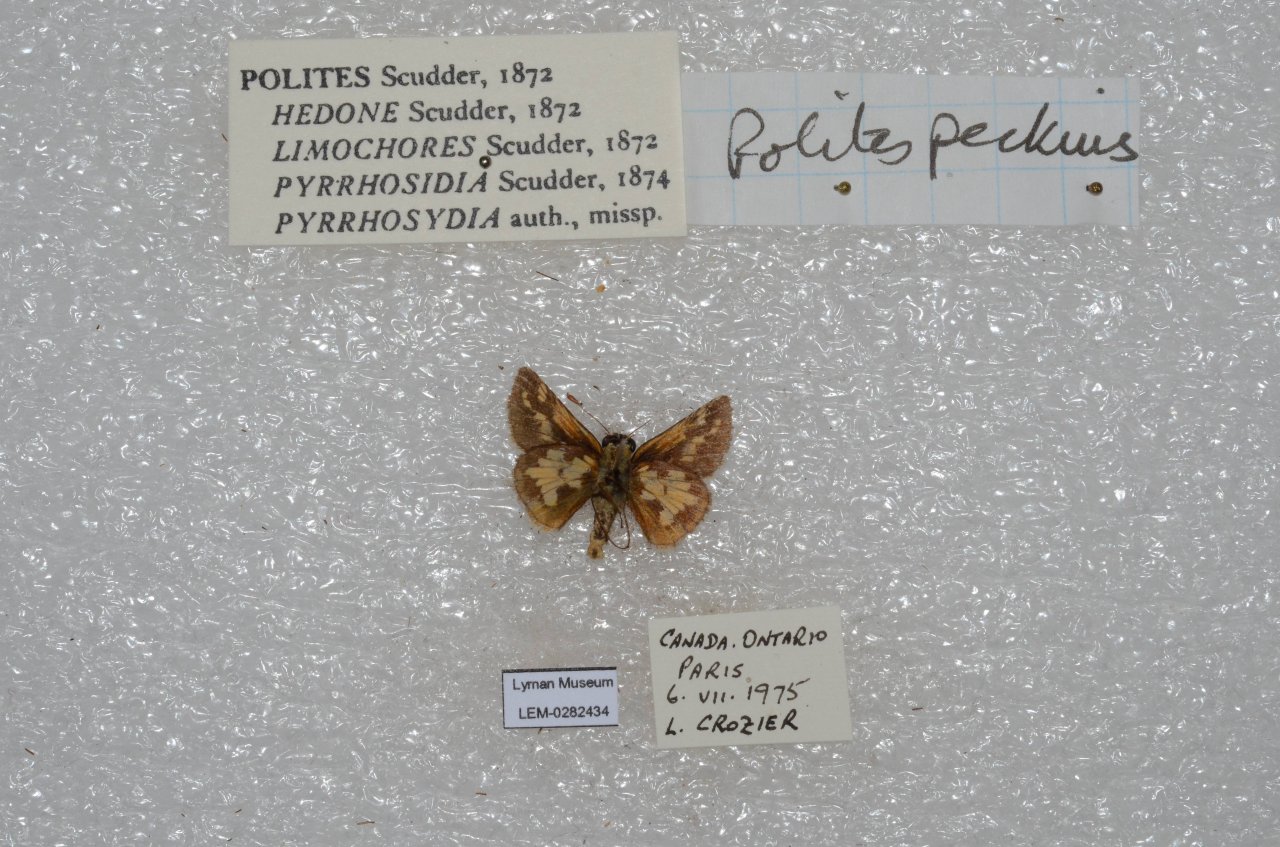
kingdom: Animalia
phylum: Arthropoda
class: Insecta
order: Lepidoptera
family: Hesperiidae
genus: Polites
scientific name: Polites coras
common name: Peck's Skipper
